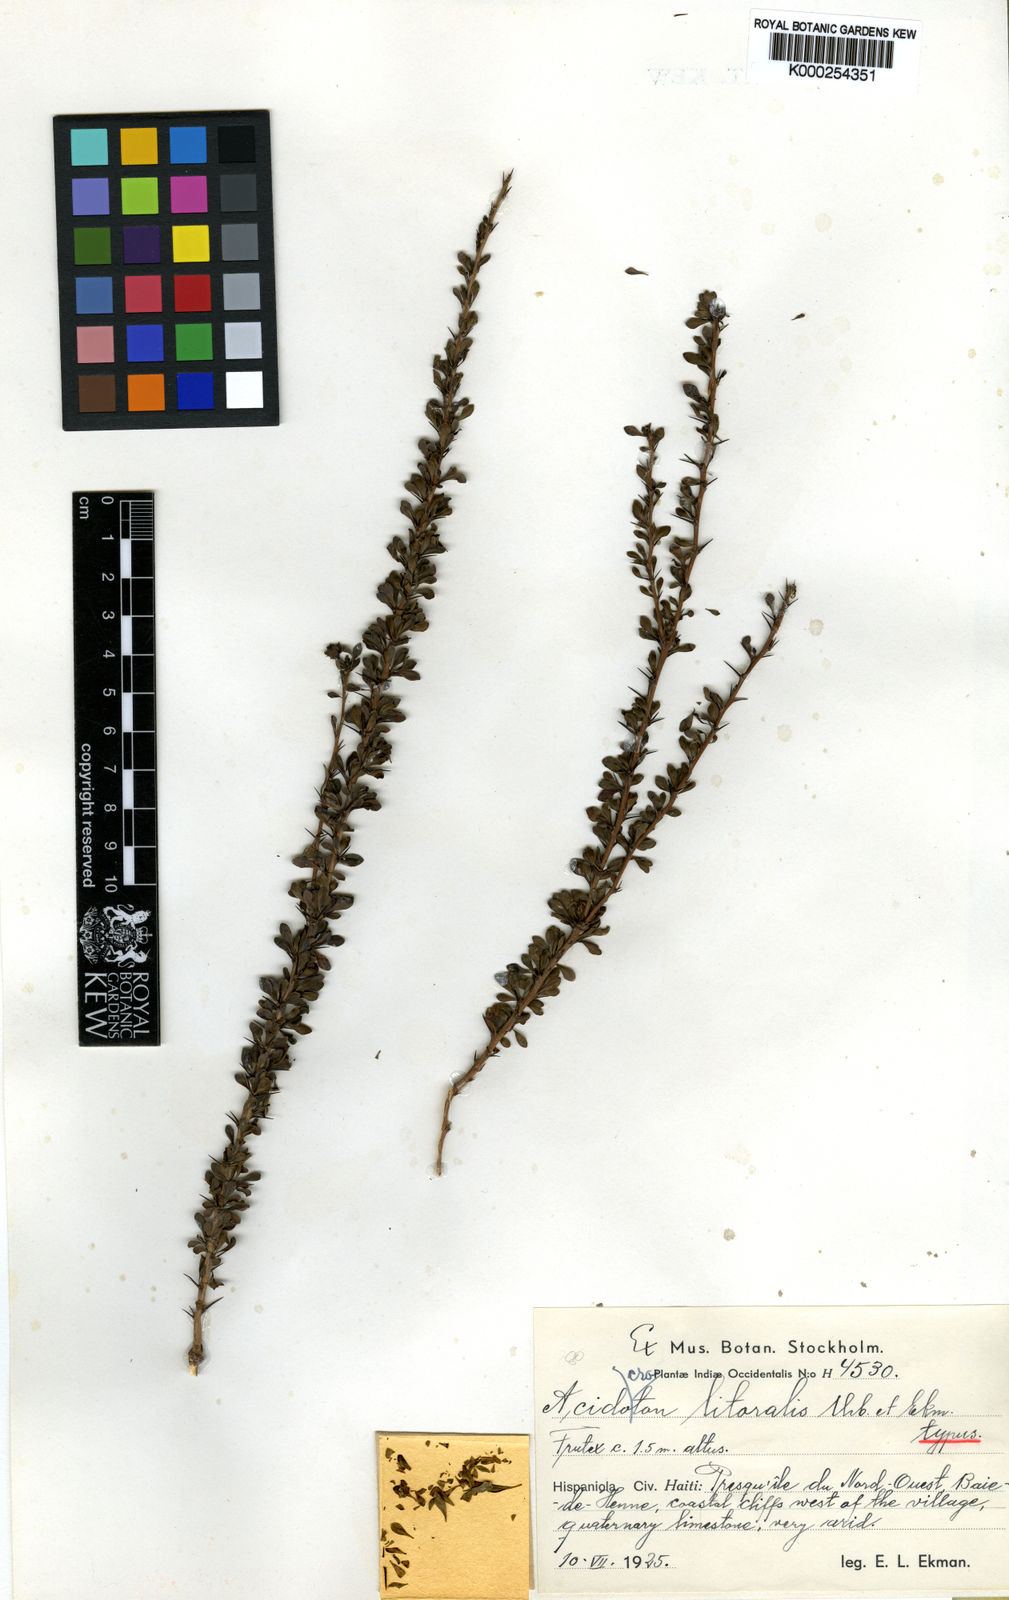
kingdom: Plantae
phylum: Tracheophyta
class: Magnoliopsida
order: Malpighiales
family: Euphorbiaceae
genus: Acidocroton
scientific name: Acidocroton litoralis
